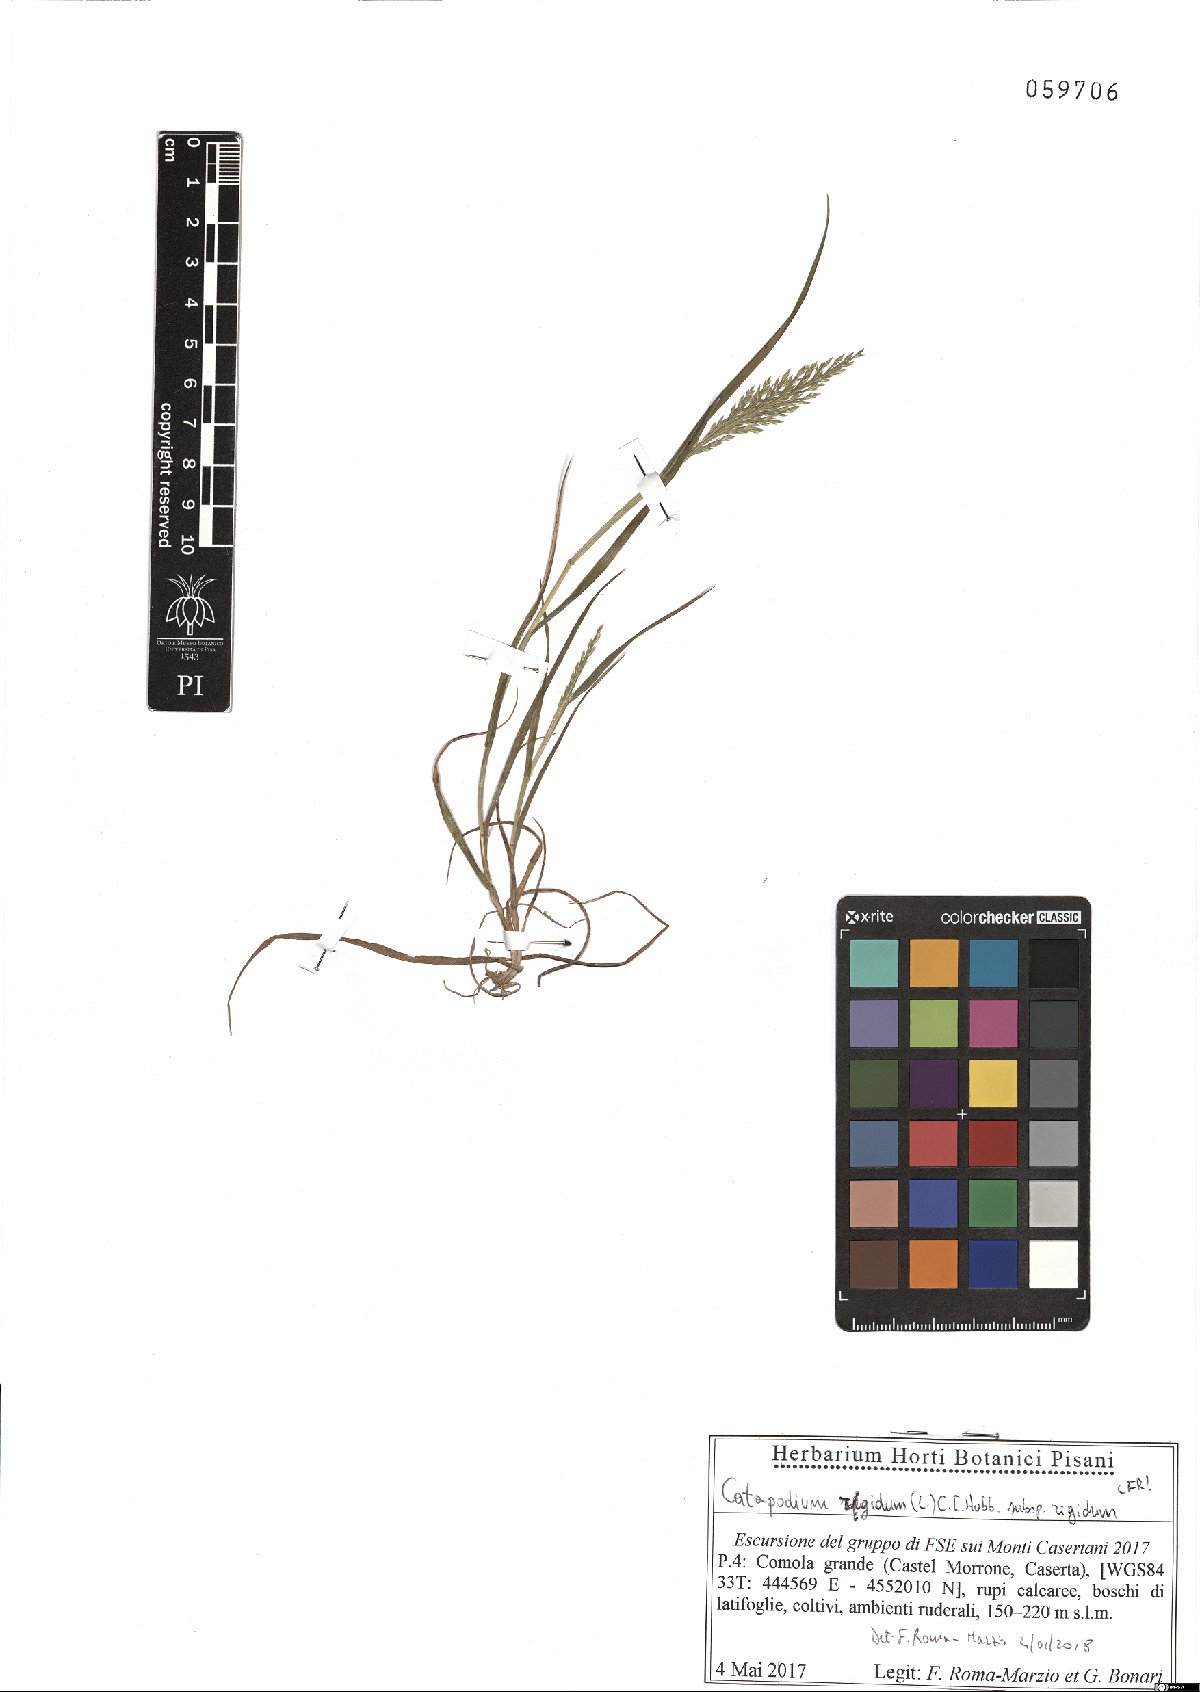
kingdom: Plantae
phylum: Tracheophyta
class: Liliopsida
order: Poales
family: Poaceae
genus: Catapodium
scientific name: Catapodium rigidum
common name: Fern-grass
